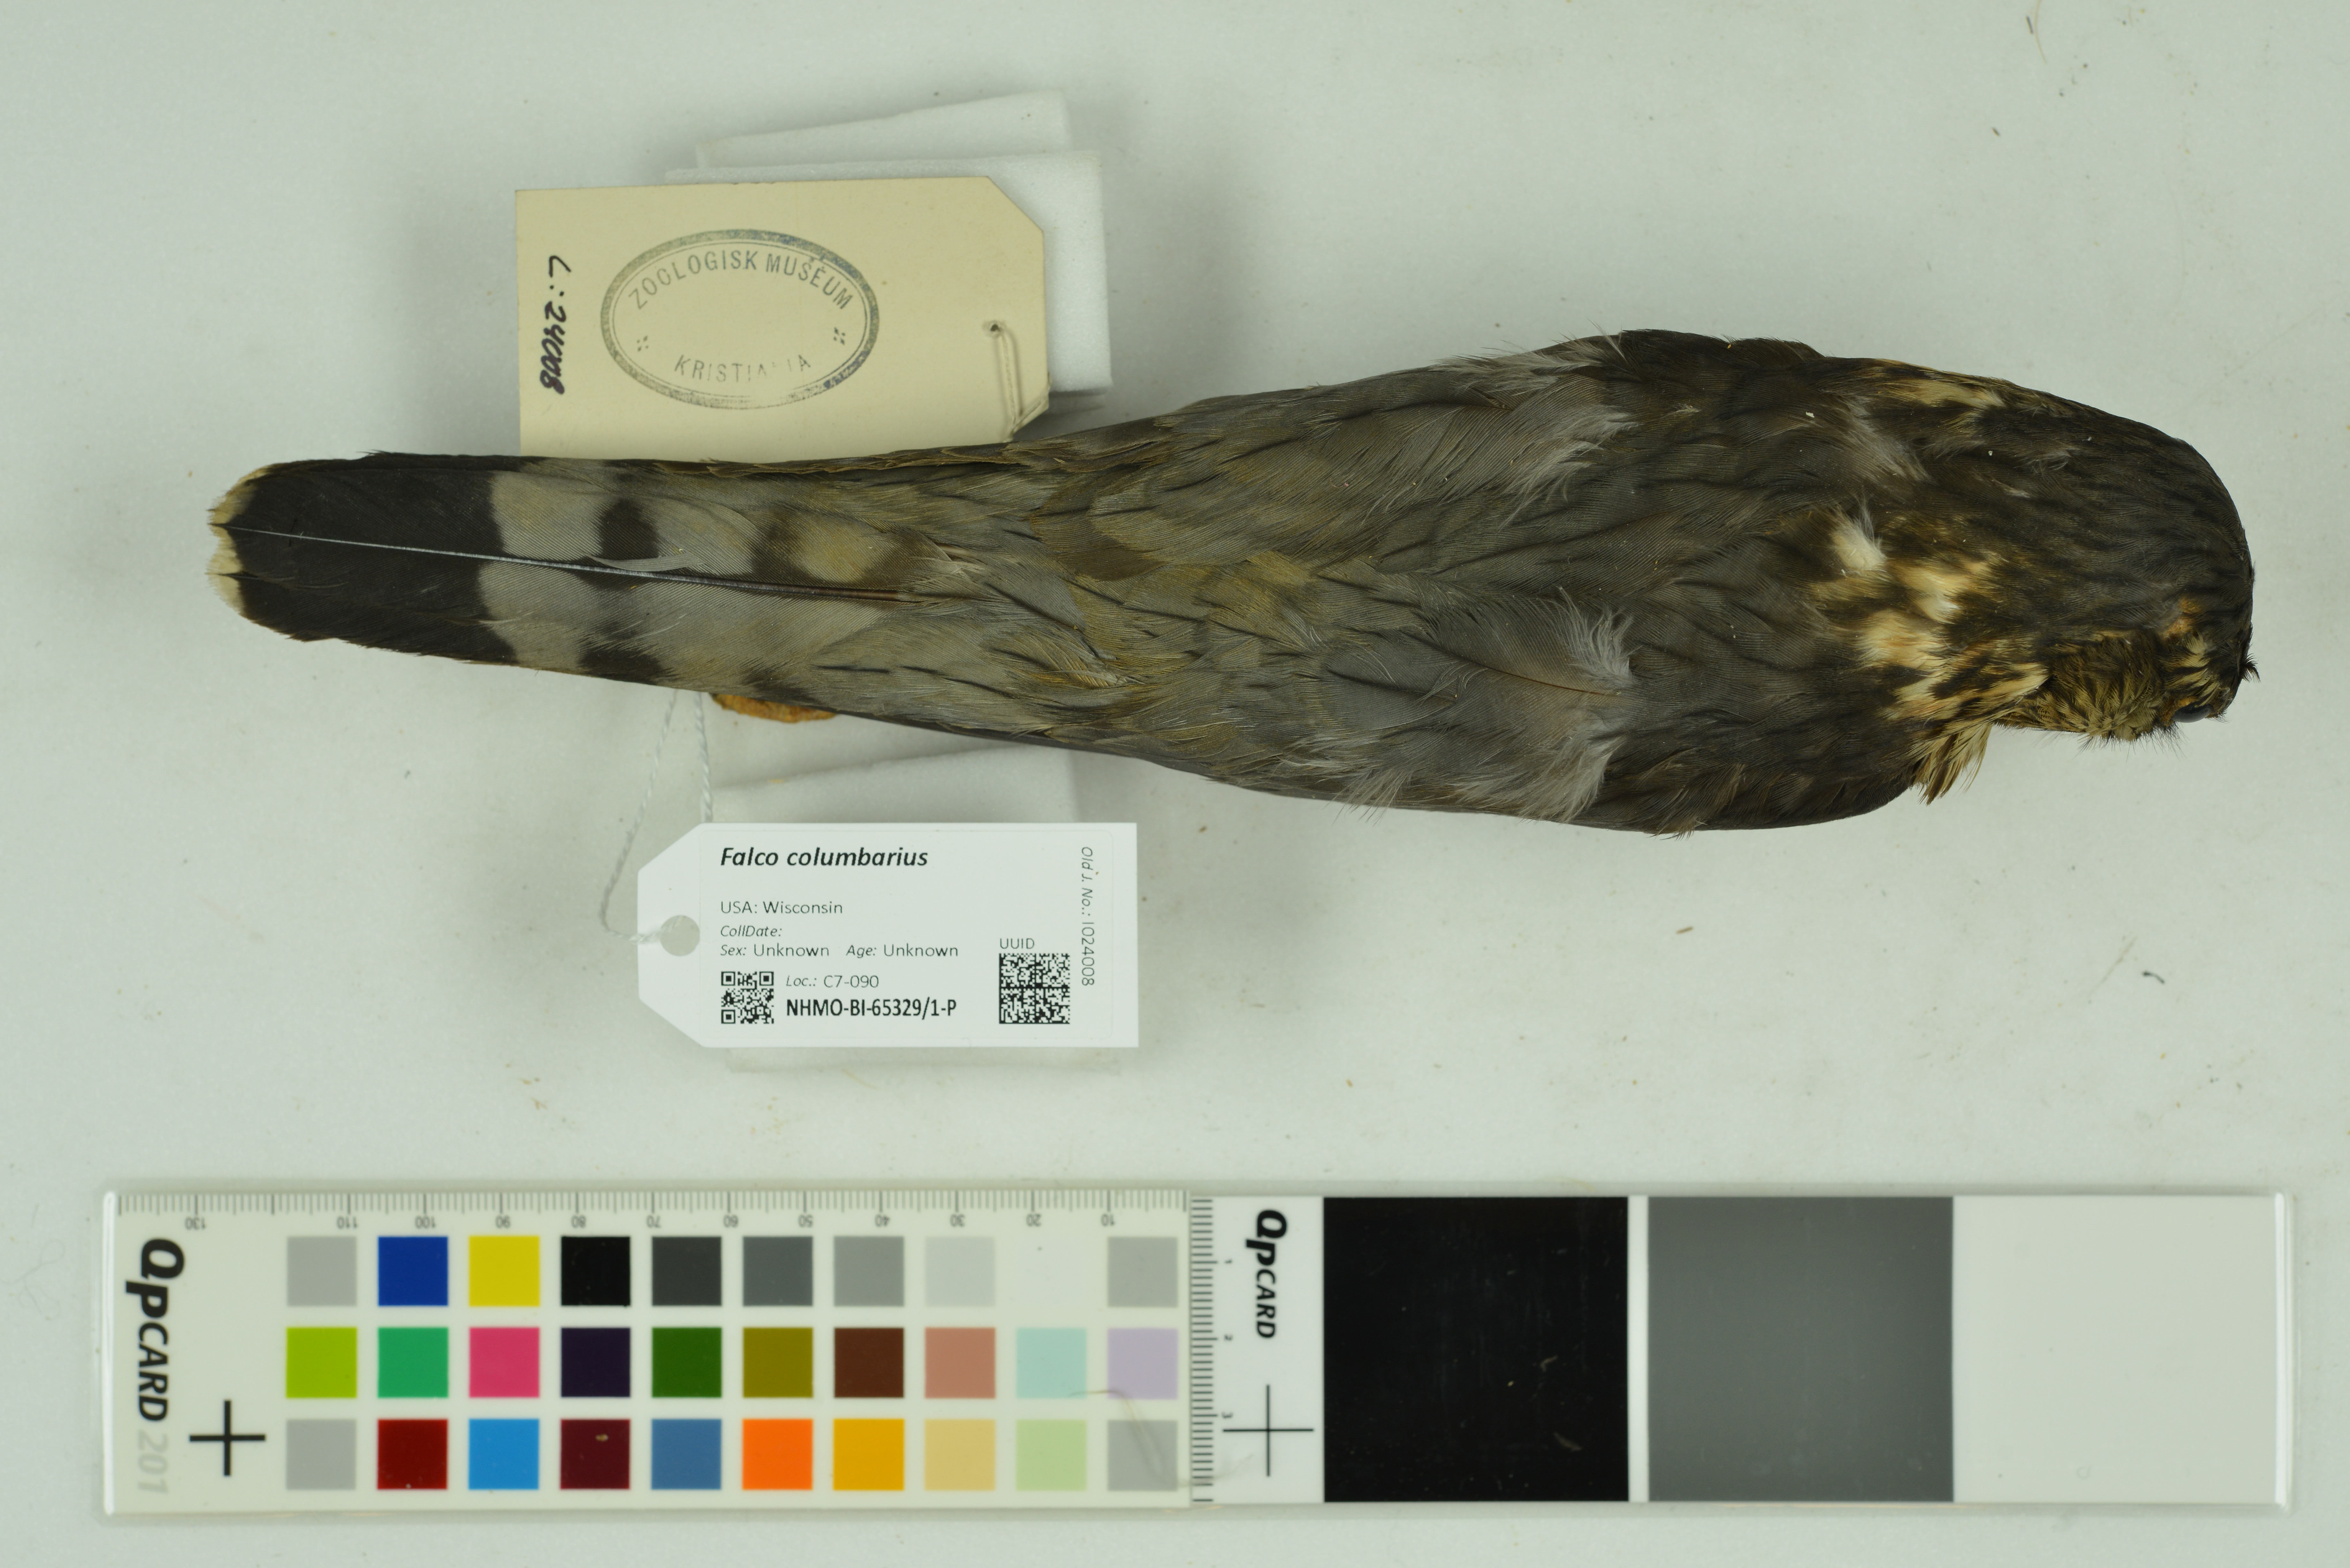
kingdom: Animalia
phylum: Chordata
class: Aves
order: Falconiformes
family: Falconidae
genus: Falco
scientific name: Falco columbarius
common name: Merlin
